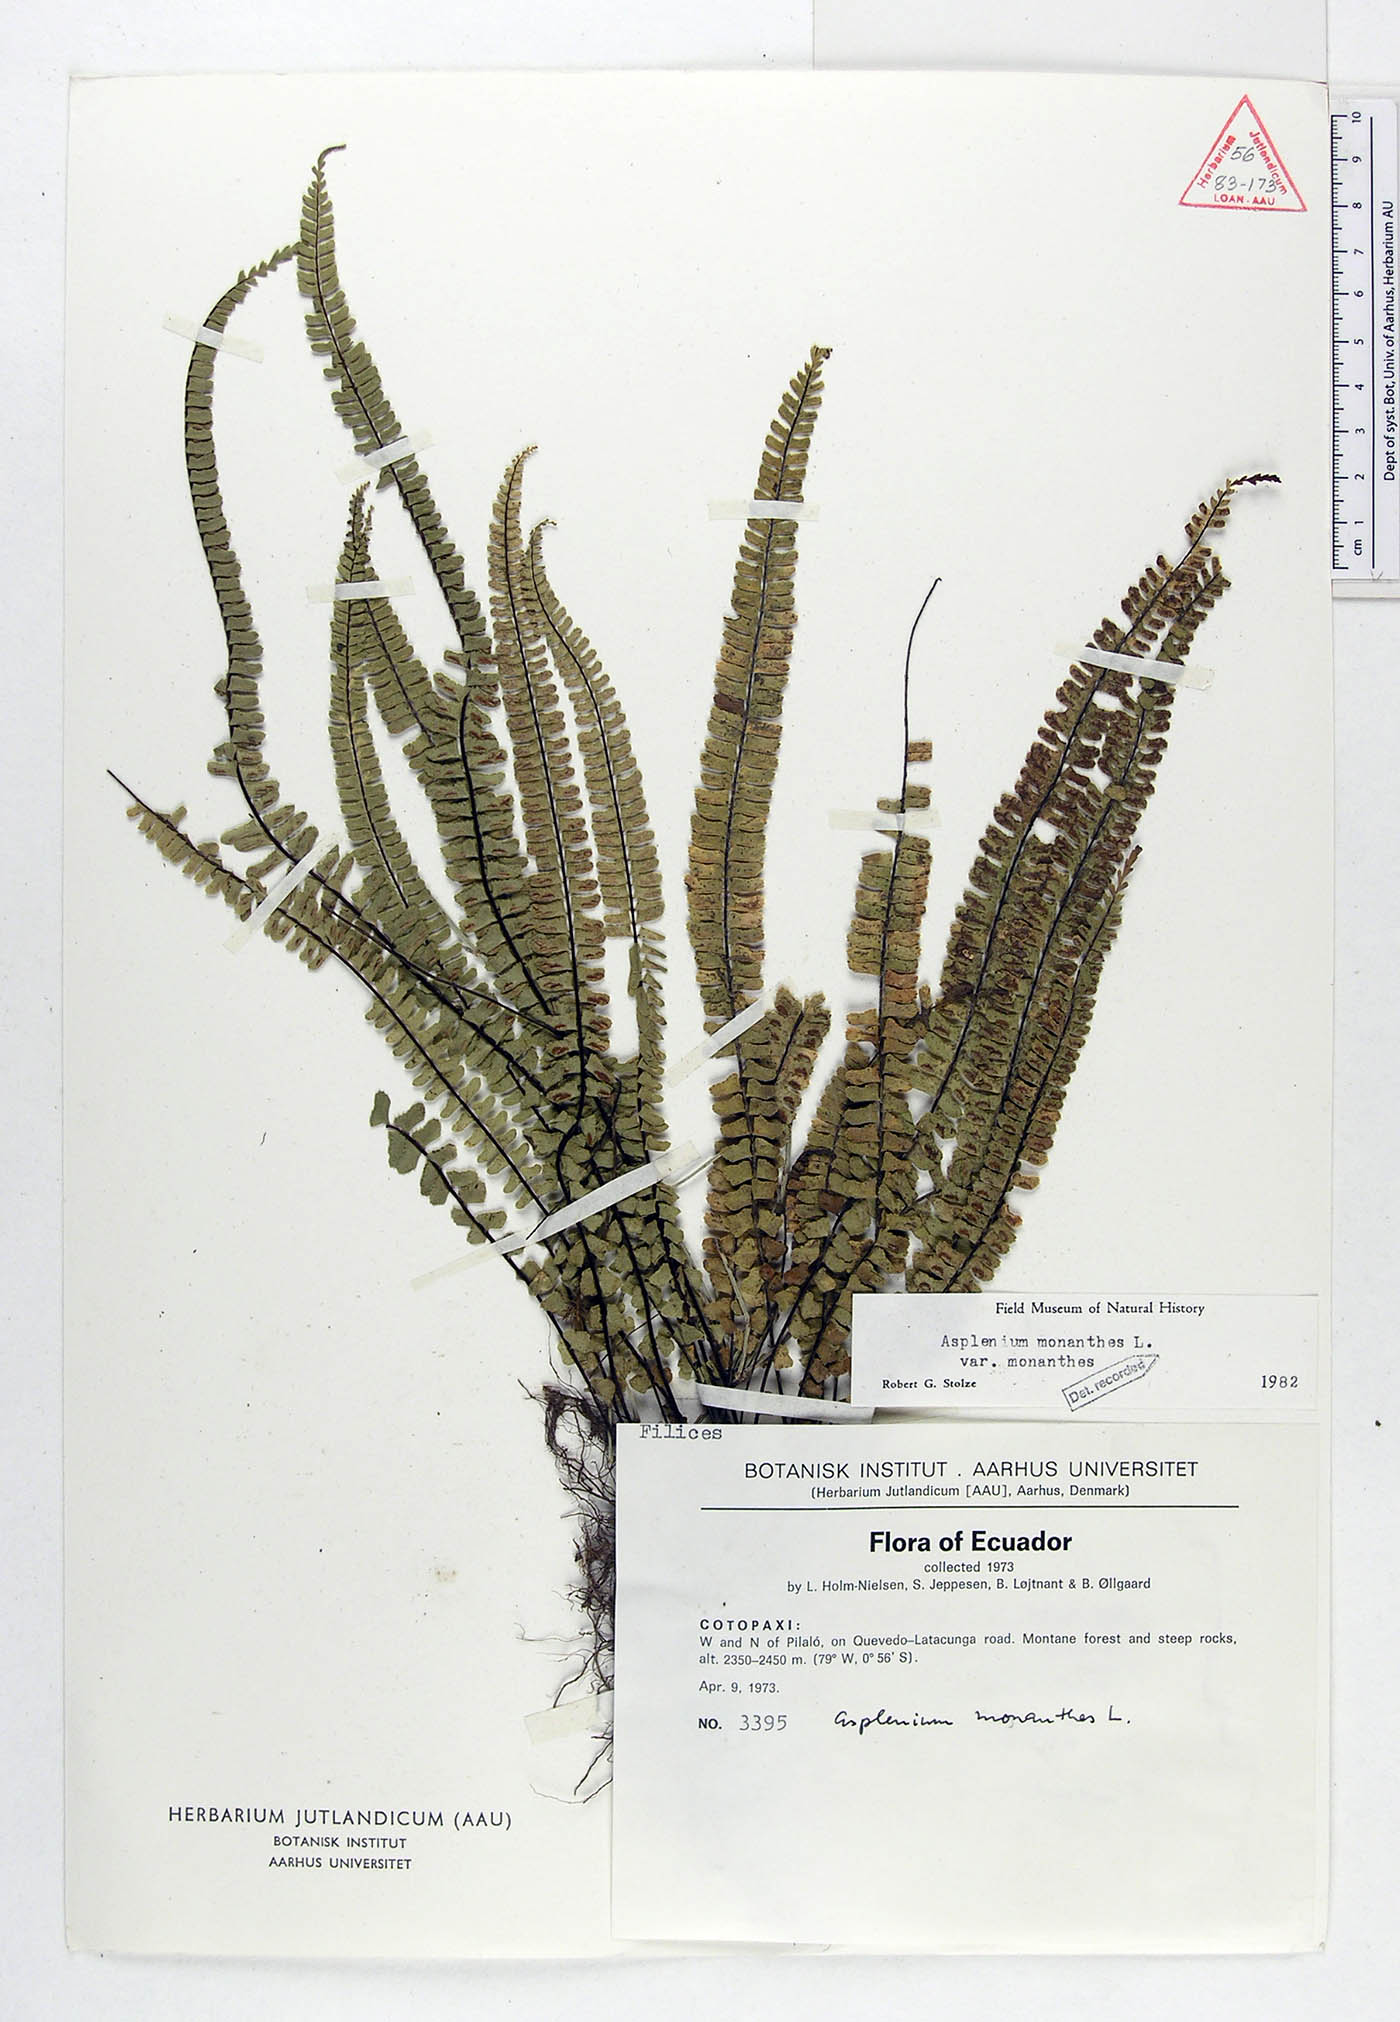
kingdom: Plantae
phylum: Tracheophyta
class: Polypodiopsida
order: Polypodiales
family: Aspleniaceae
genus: Asplenium
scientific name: Asplenium monanthes
